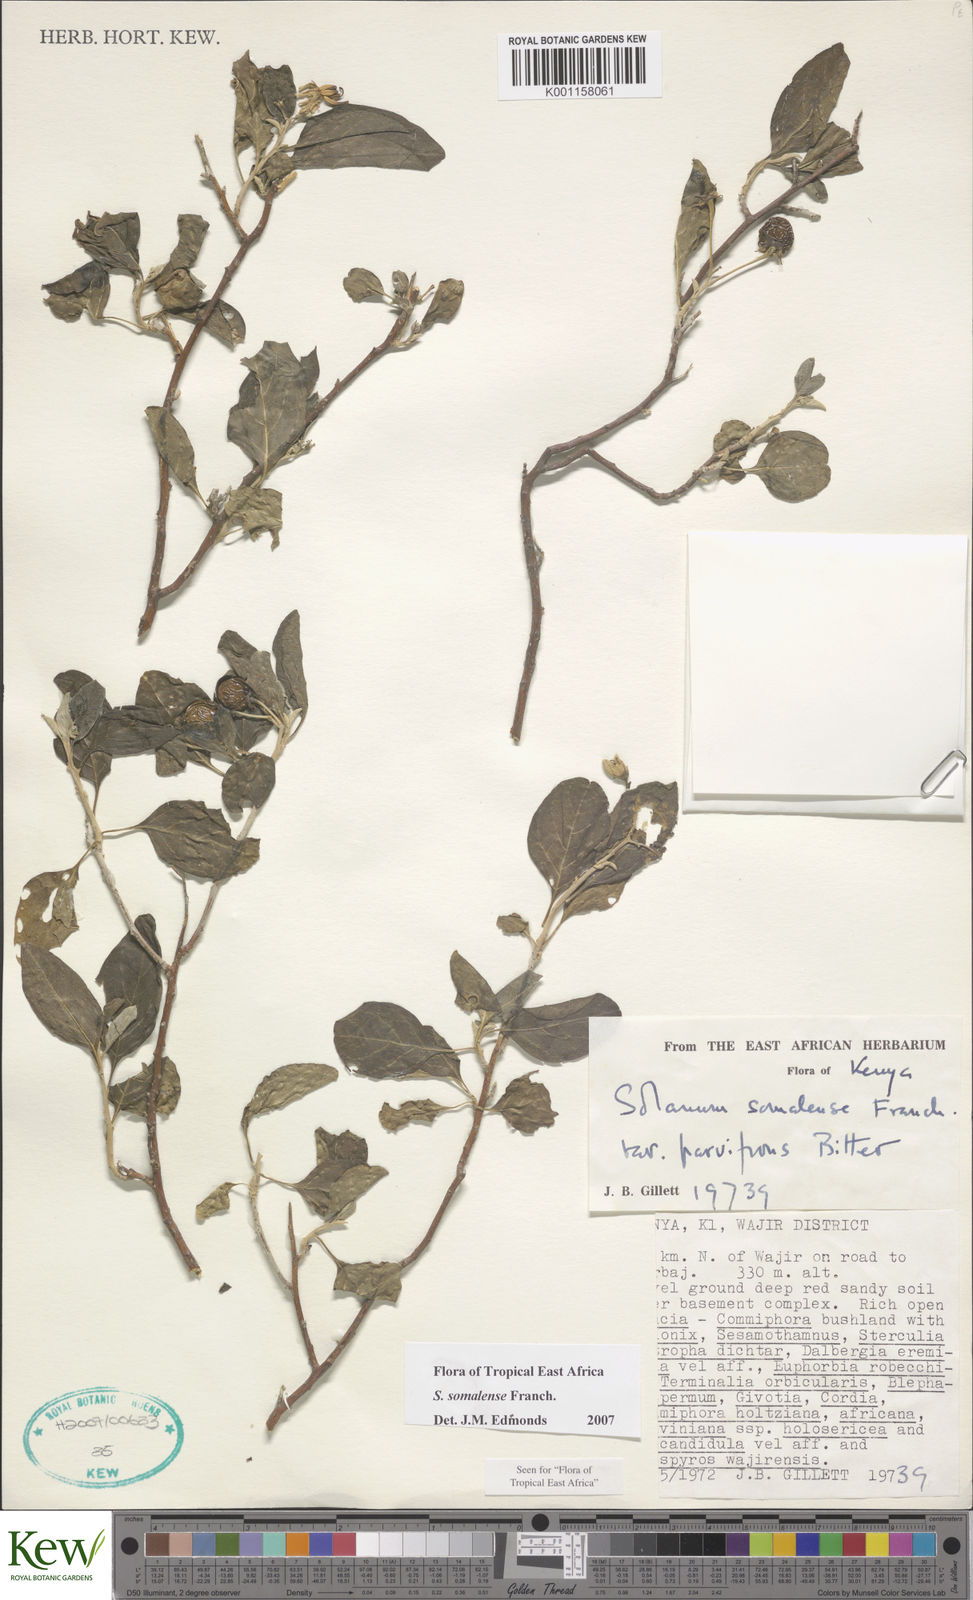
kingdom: Plantae
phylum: Tracheophyta
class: Magnoliopsida
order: Solanales
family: Solanaceae
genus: Solanum
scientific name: Solanum somalense
